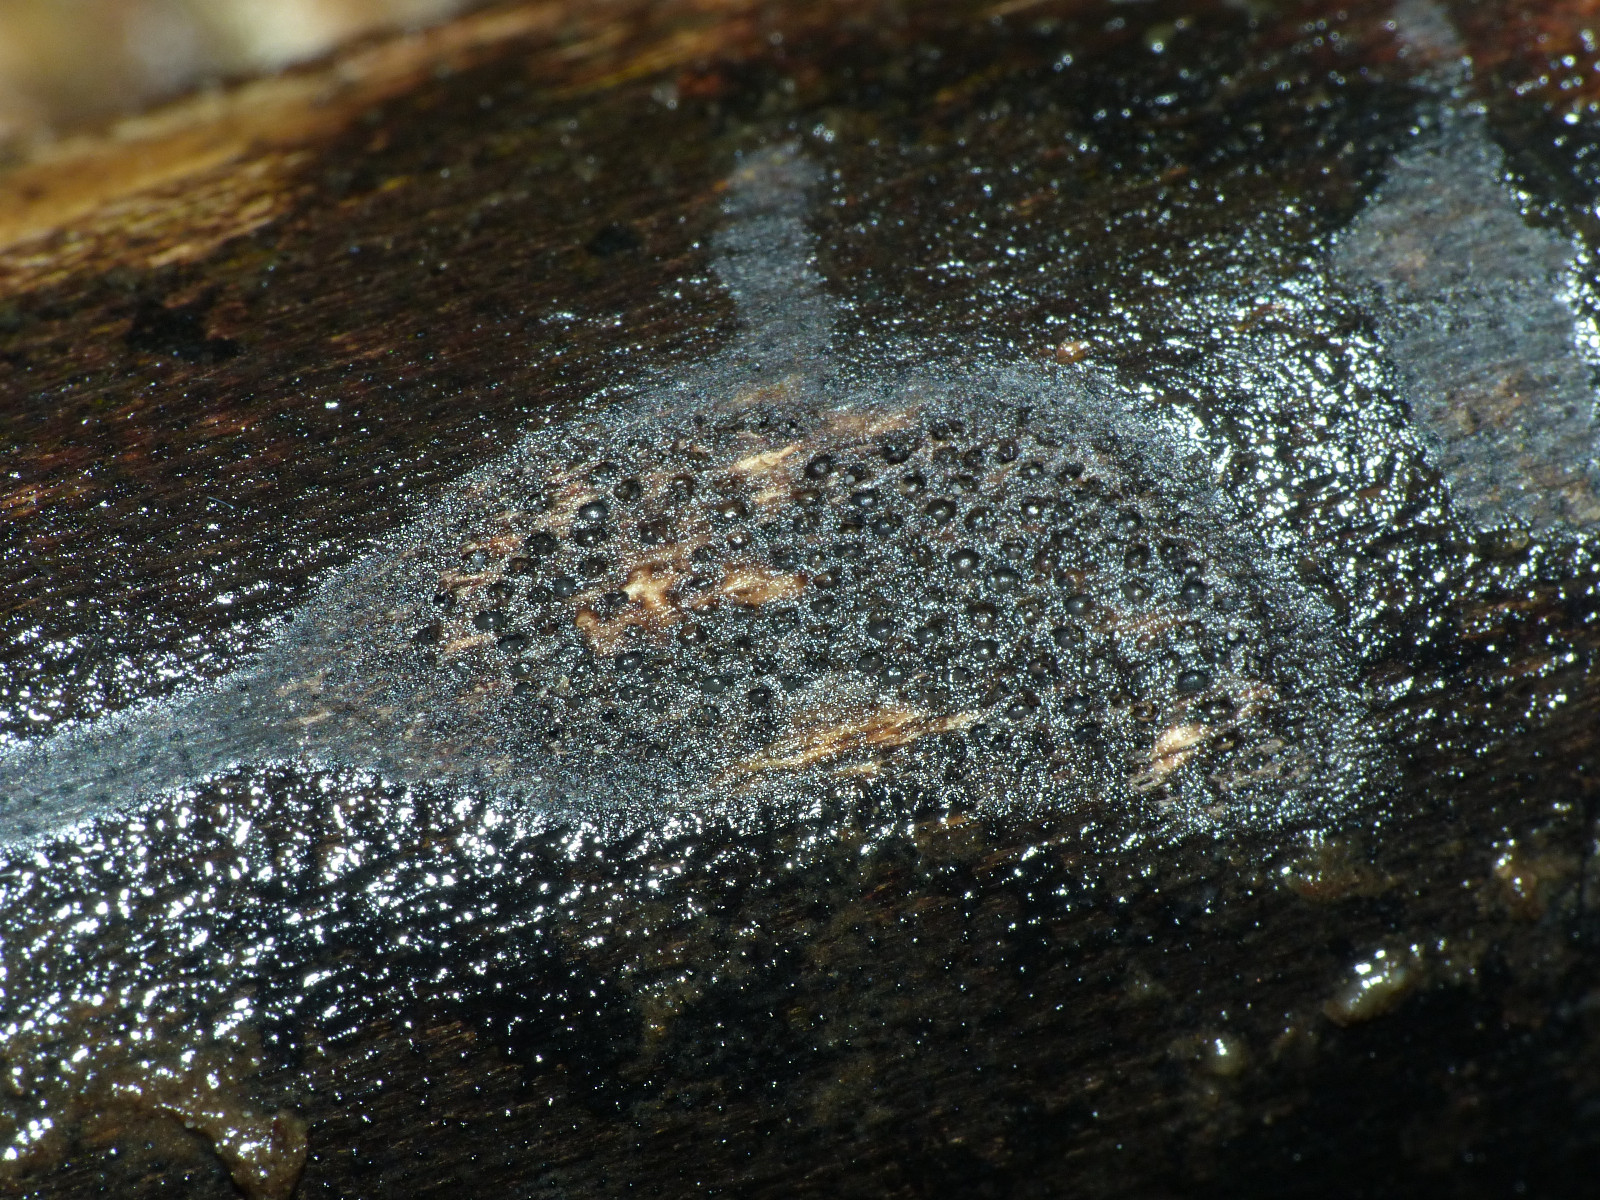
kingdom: Fungi
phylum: Ascomycota
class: Sordariomycetes
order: Xylariales
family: Diatrypaceae
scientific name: Diatrypaceae
